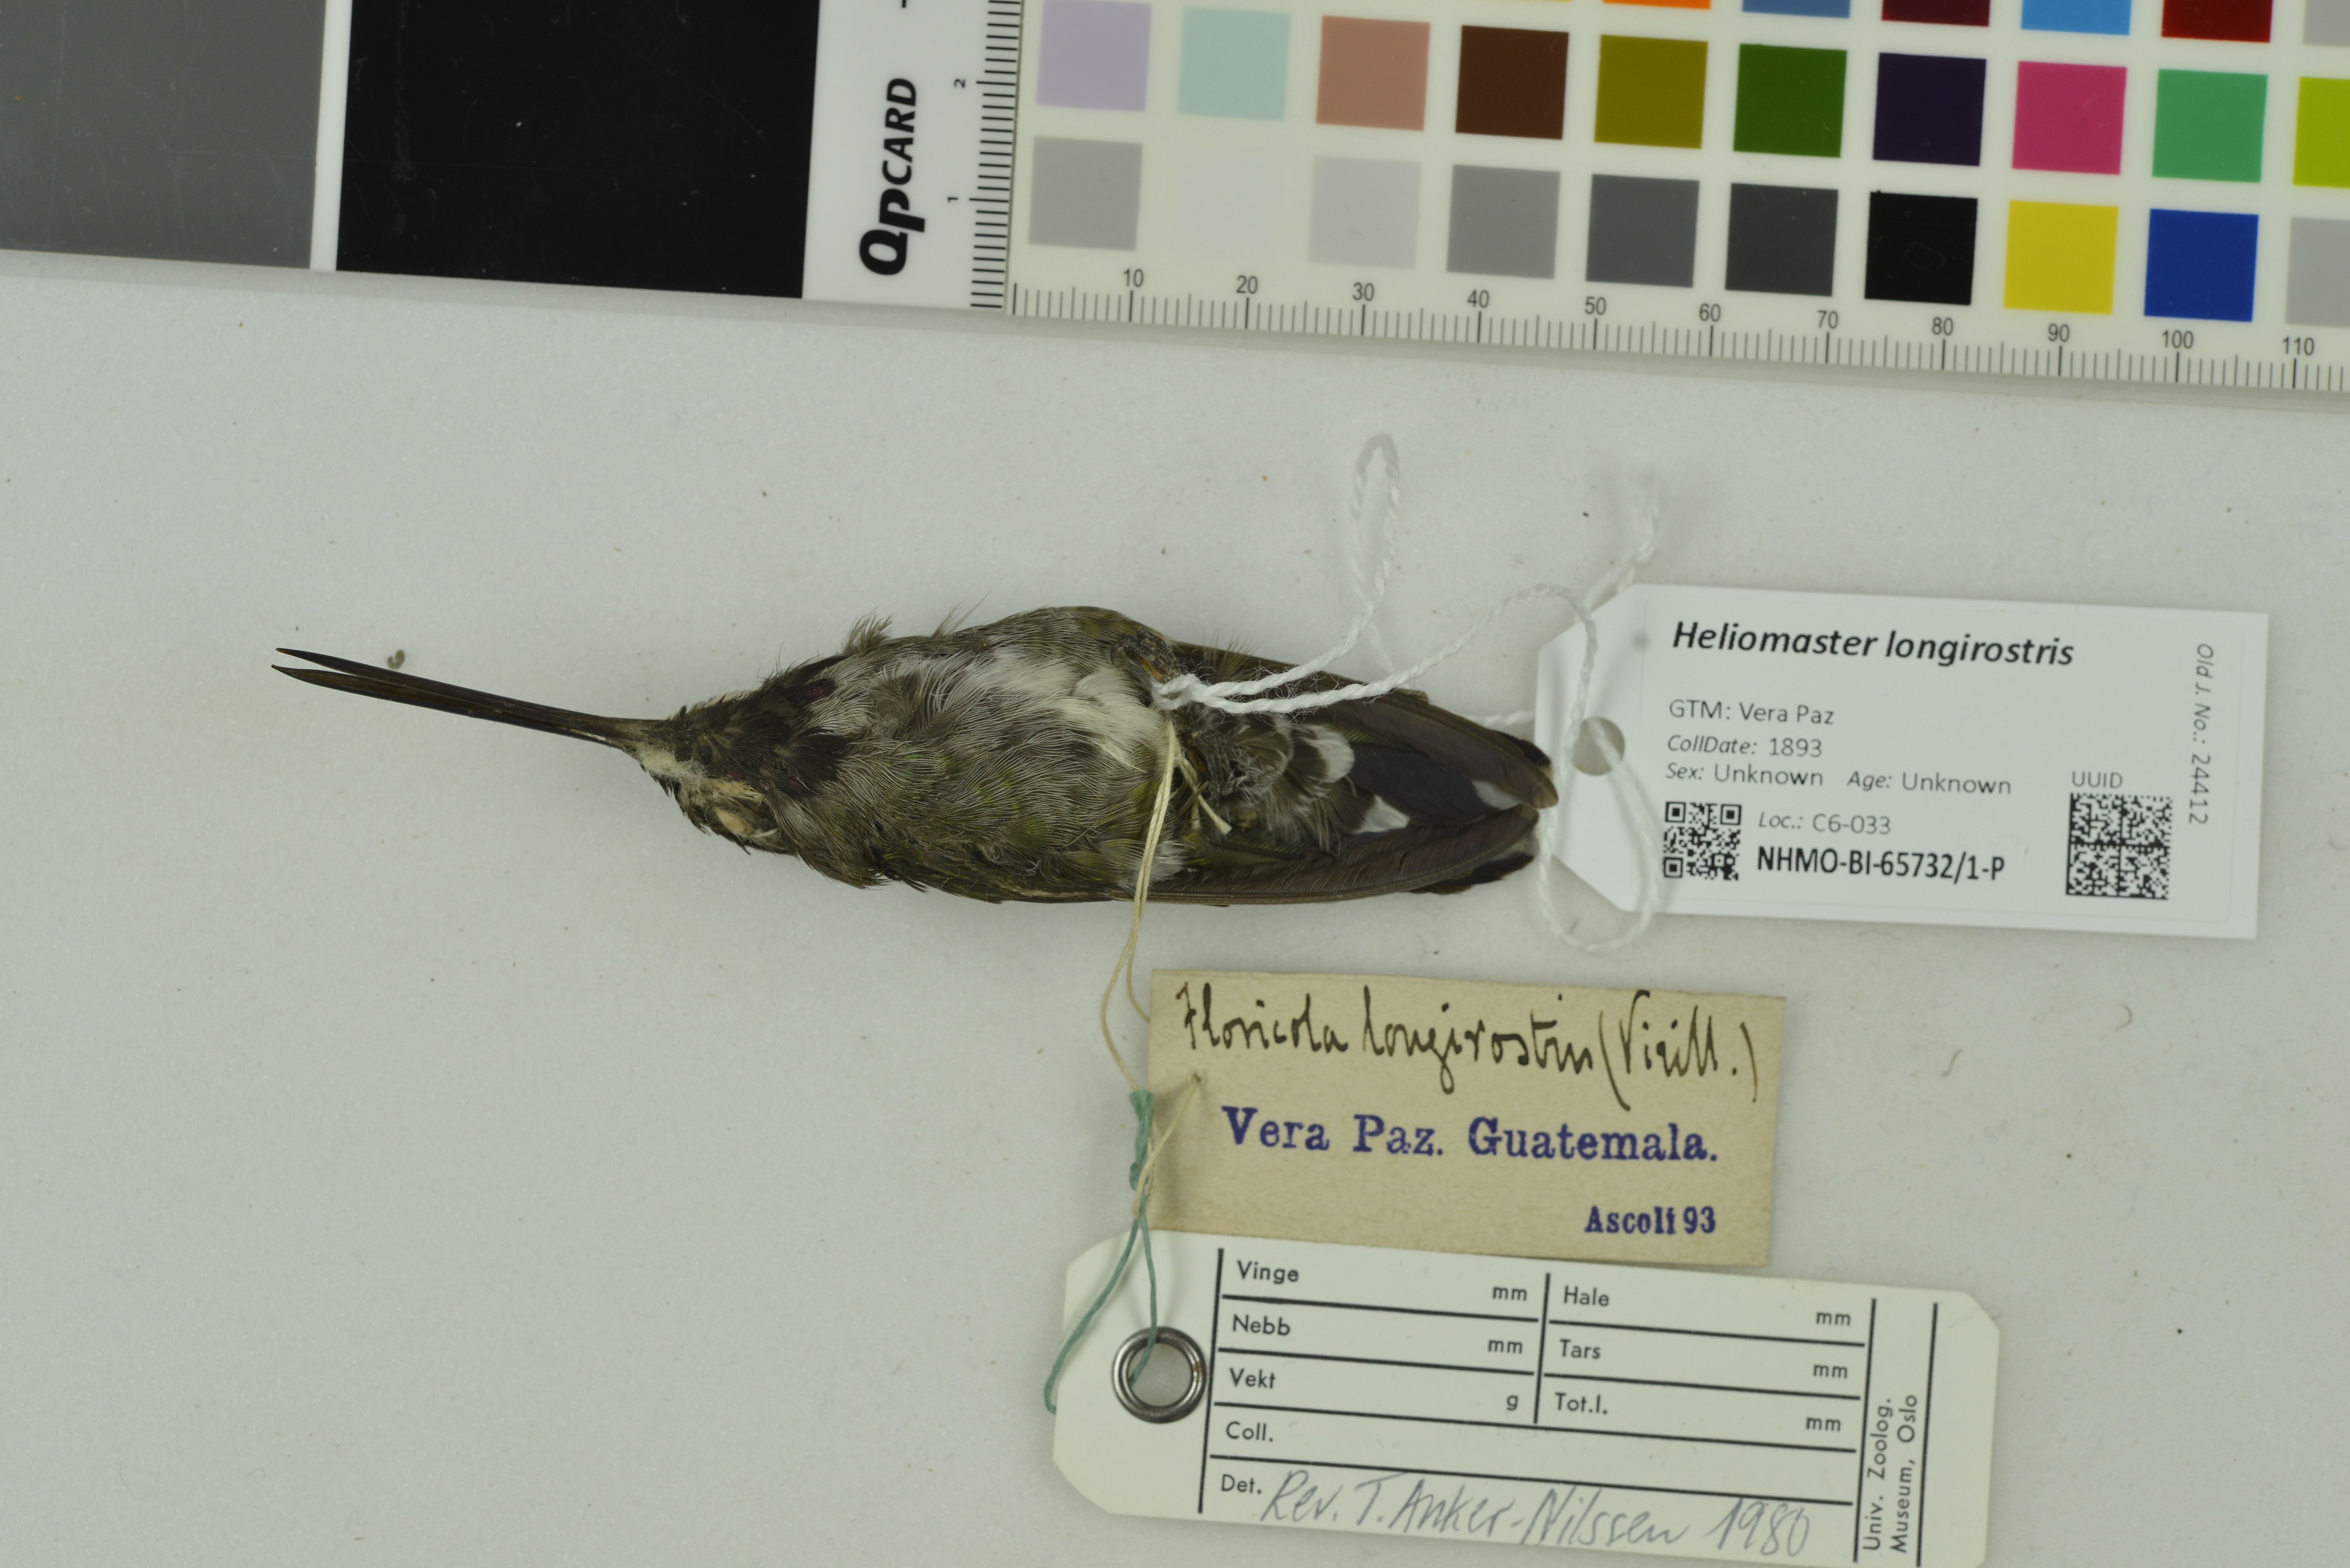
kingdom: Animalia
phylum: Chordata
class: Aves
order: Apodiformes
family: Trochilidae
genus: Heliomaster
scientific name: Heliomaster longirostris
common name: Long-billed starthroat
